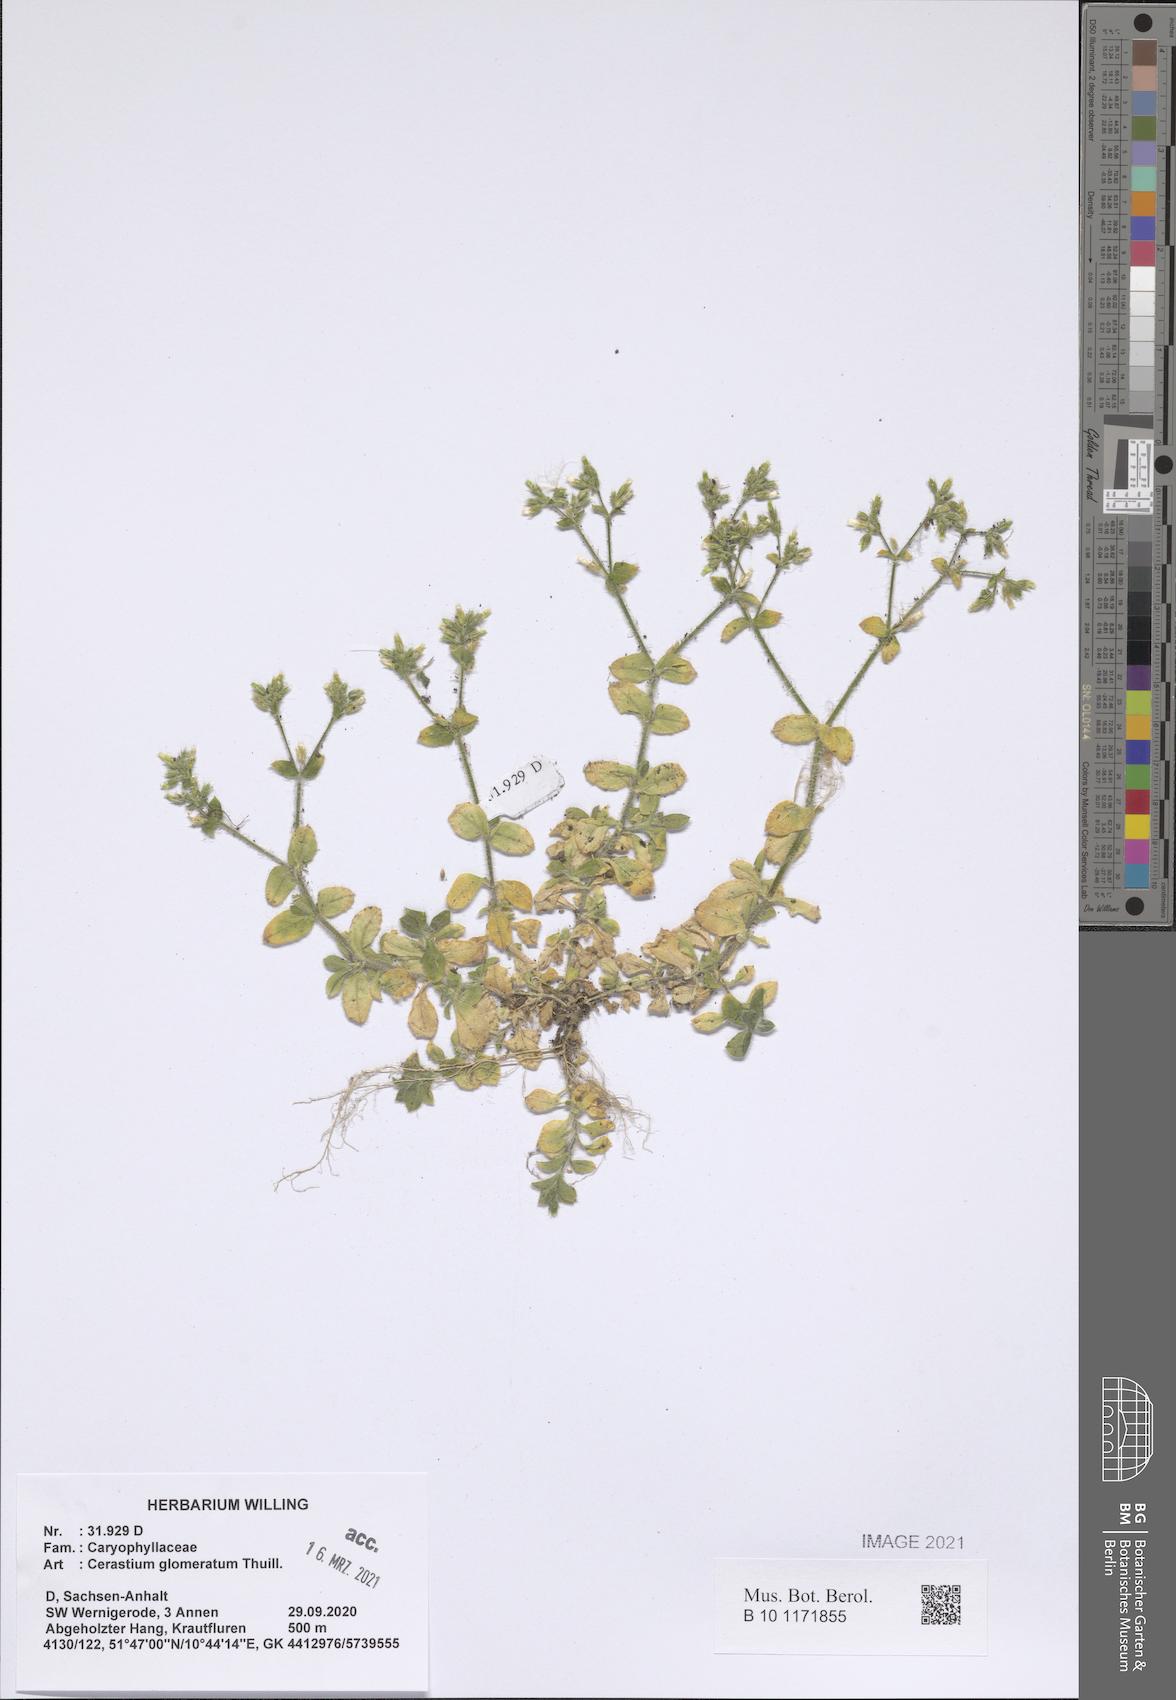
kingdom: Plantae
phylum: Tracheophyta
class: Magnoliopsida
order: Caryophyllales
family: Caryophyllaceae
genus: Cerastium
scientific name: Cerastium glomeratum
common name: Sticky chickweed
